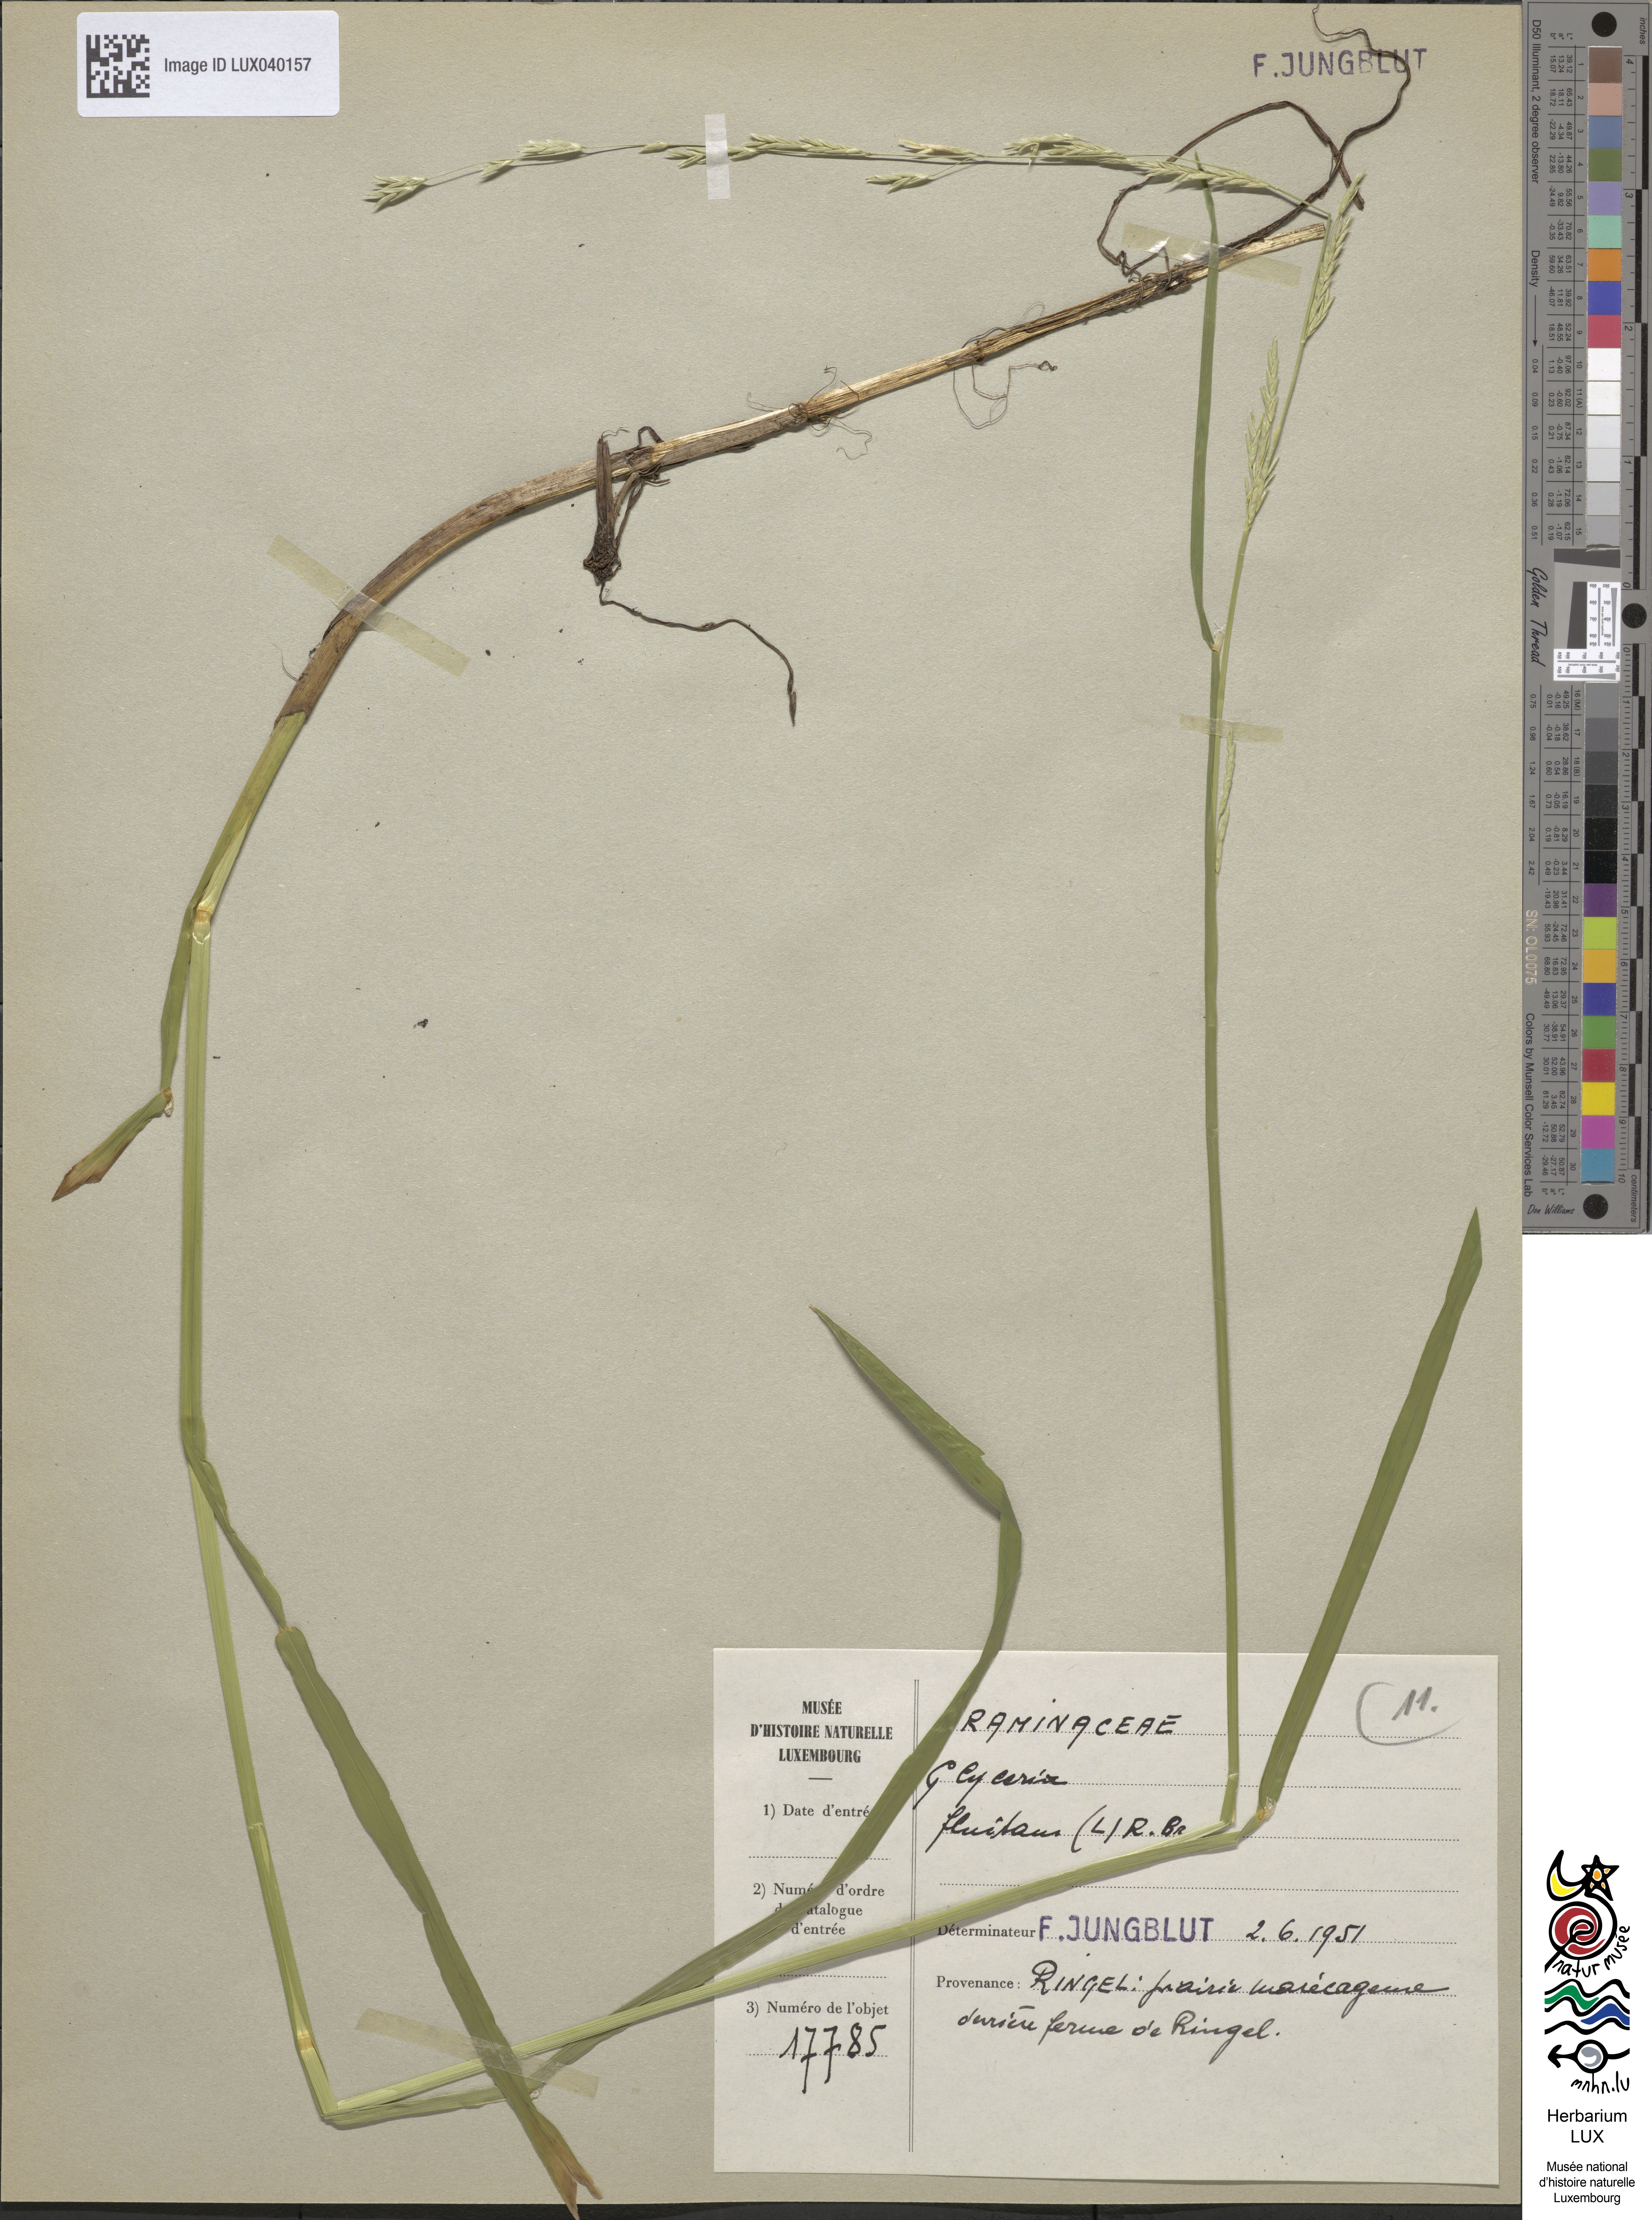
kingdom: Plantae
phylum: Tracheophyta
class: Liliopsida
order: Poales
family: Poaceae
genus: Glyceria
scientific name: Glyceria fluitans
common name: Floating sweet-grass
